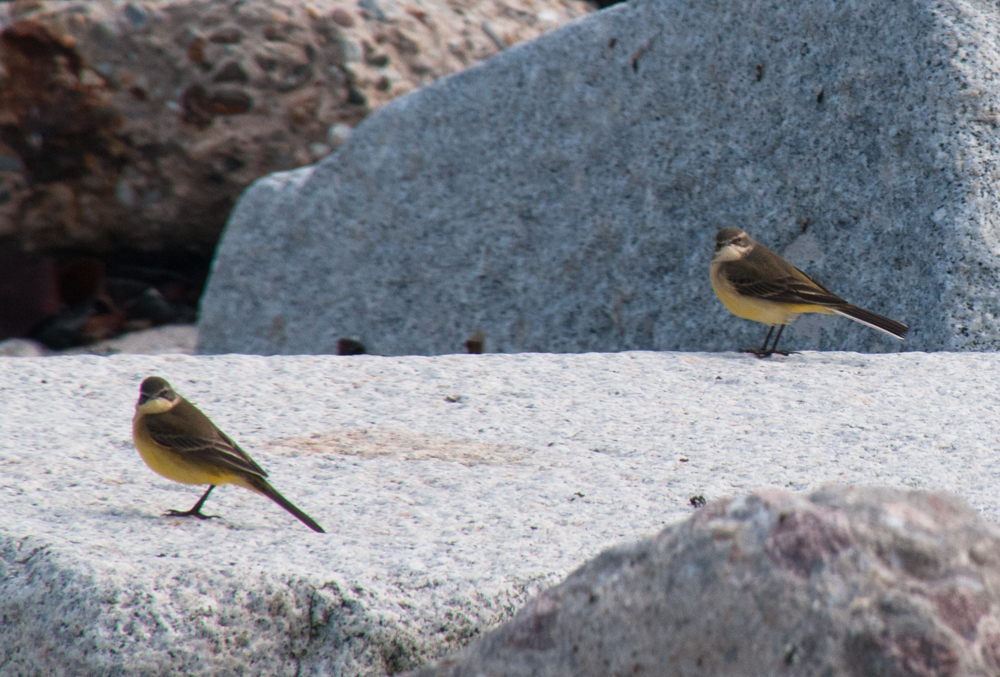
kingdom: Animalia
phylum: Chordata
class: Aves
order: Passeriformes
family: Motacillidae
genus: Motacilla
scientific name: Motacilla flava
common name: Western yellow wagtail
